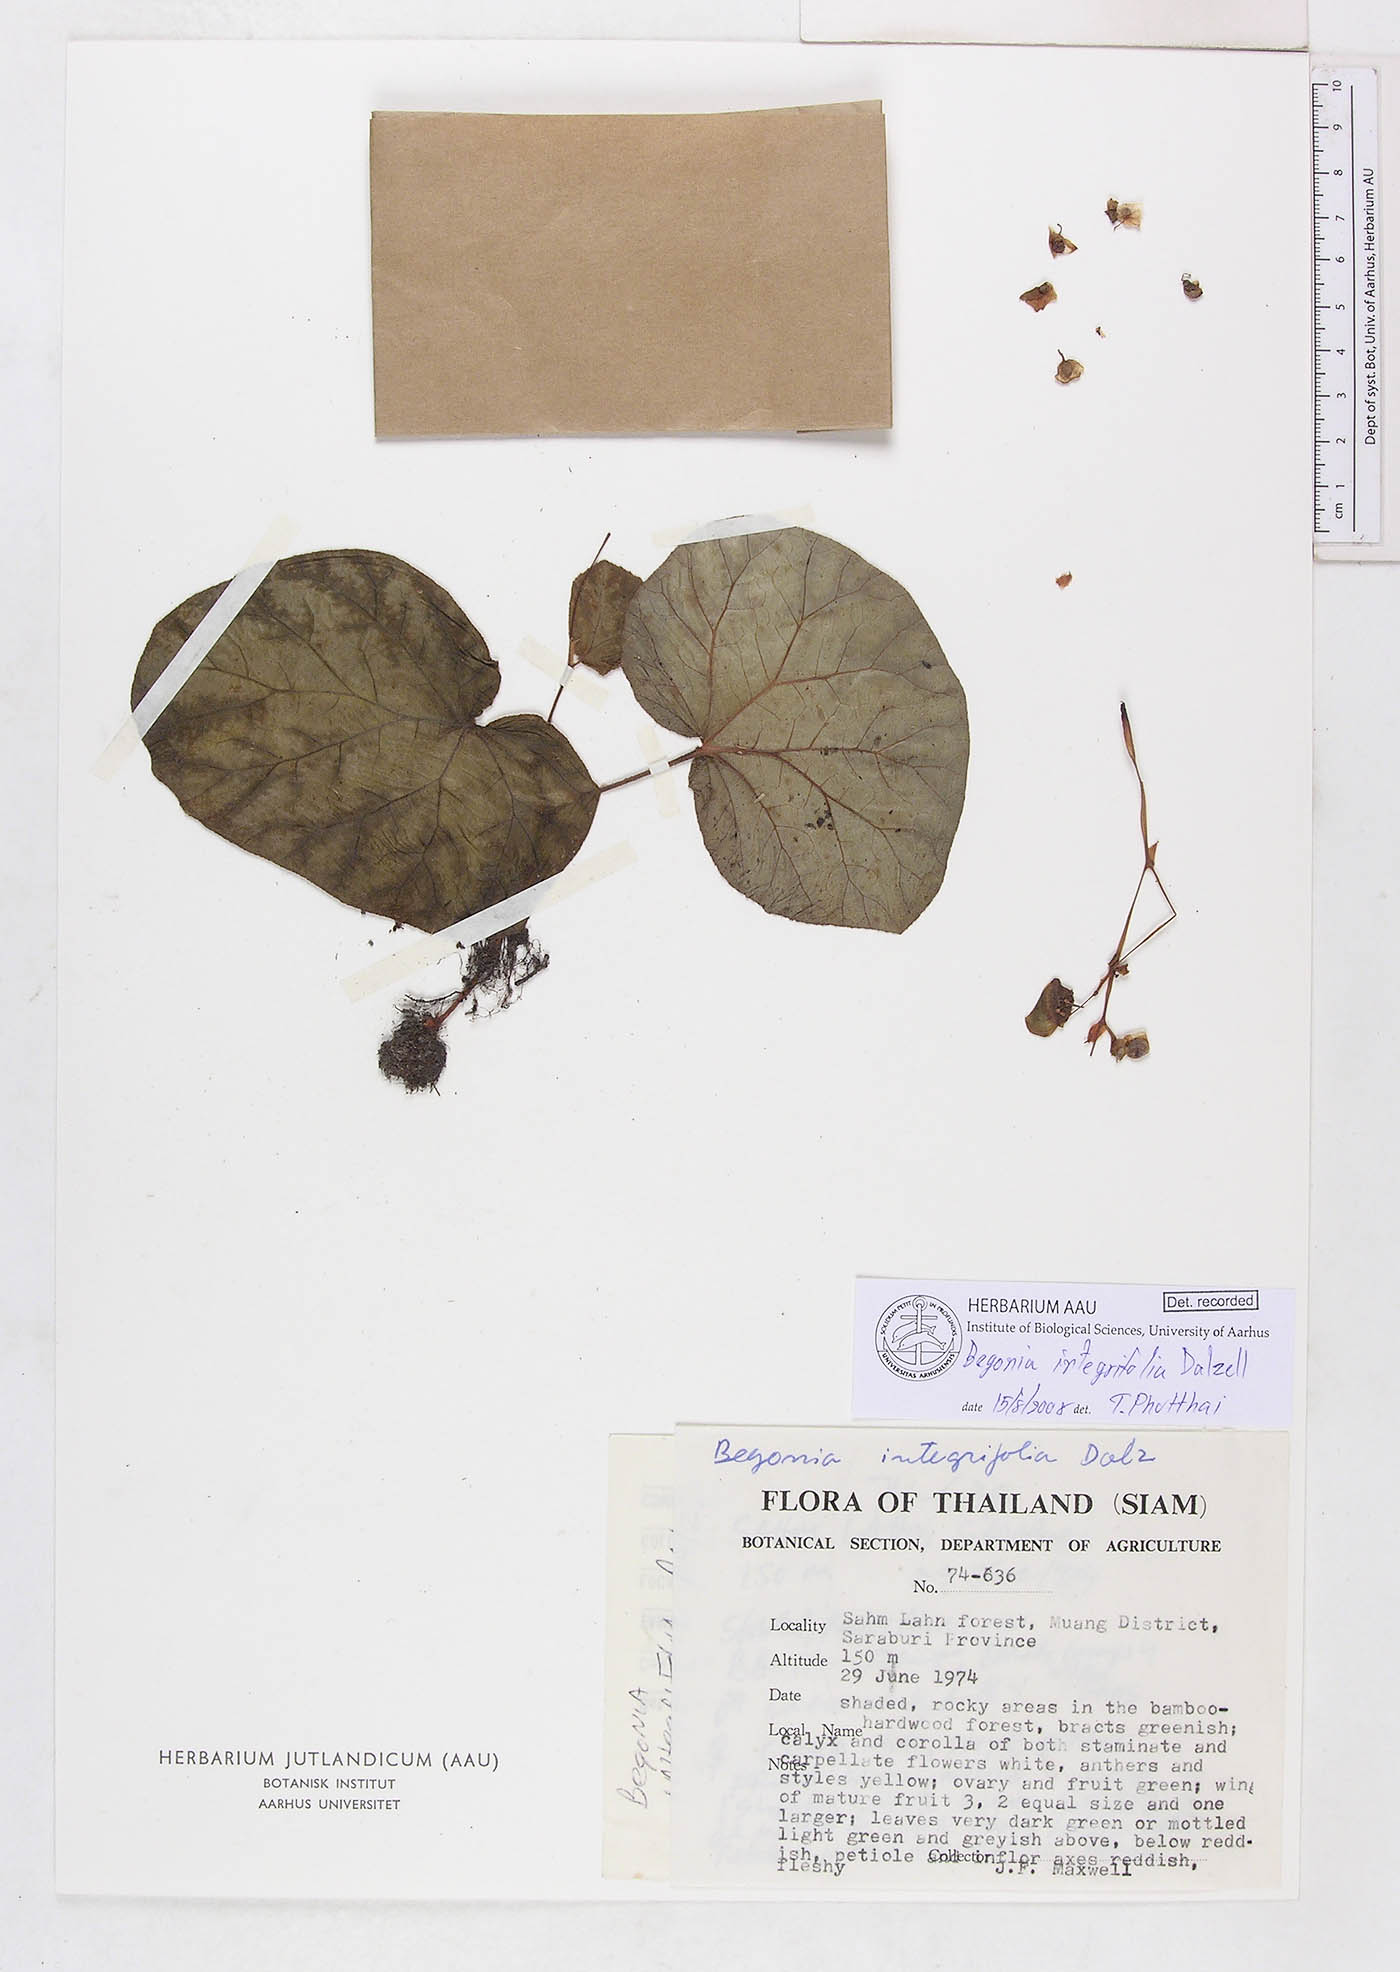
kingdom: Plantae
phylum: Tracheophyta
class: Magnoliopsida
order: Cucurbitales
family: Begoniaceae
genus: Begonia
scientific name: Begonia vagans
